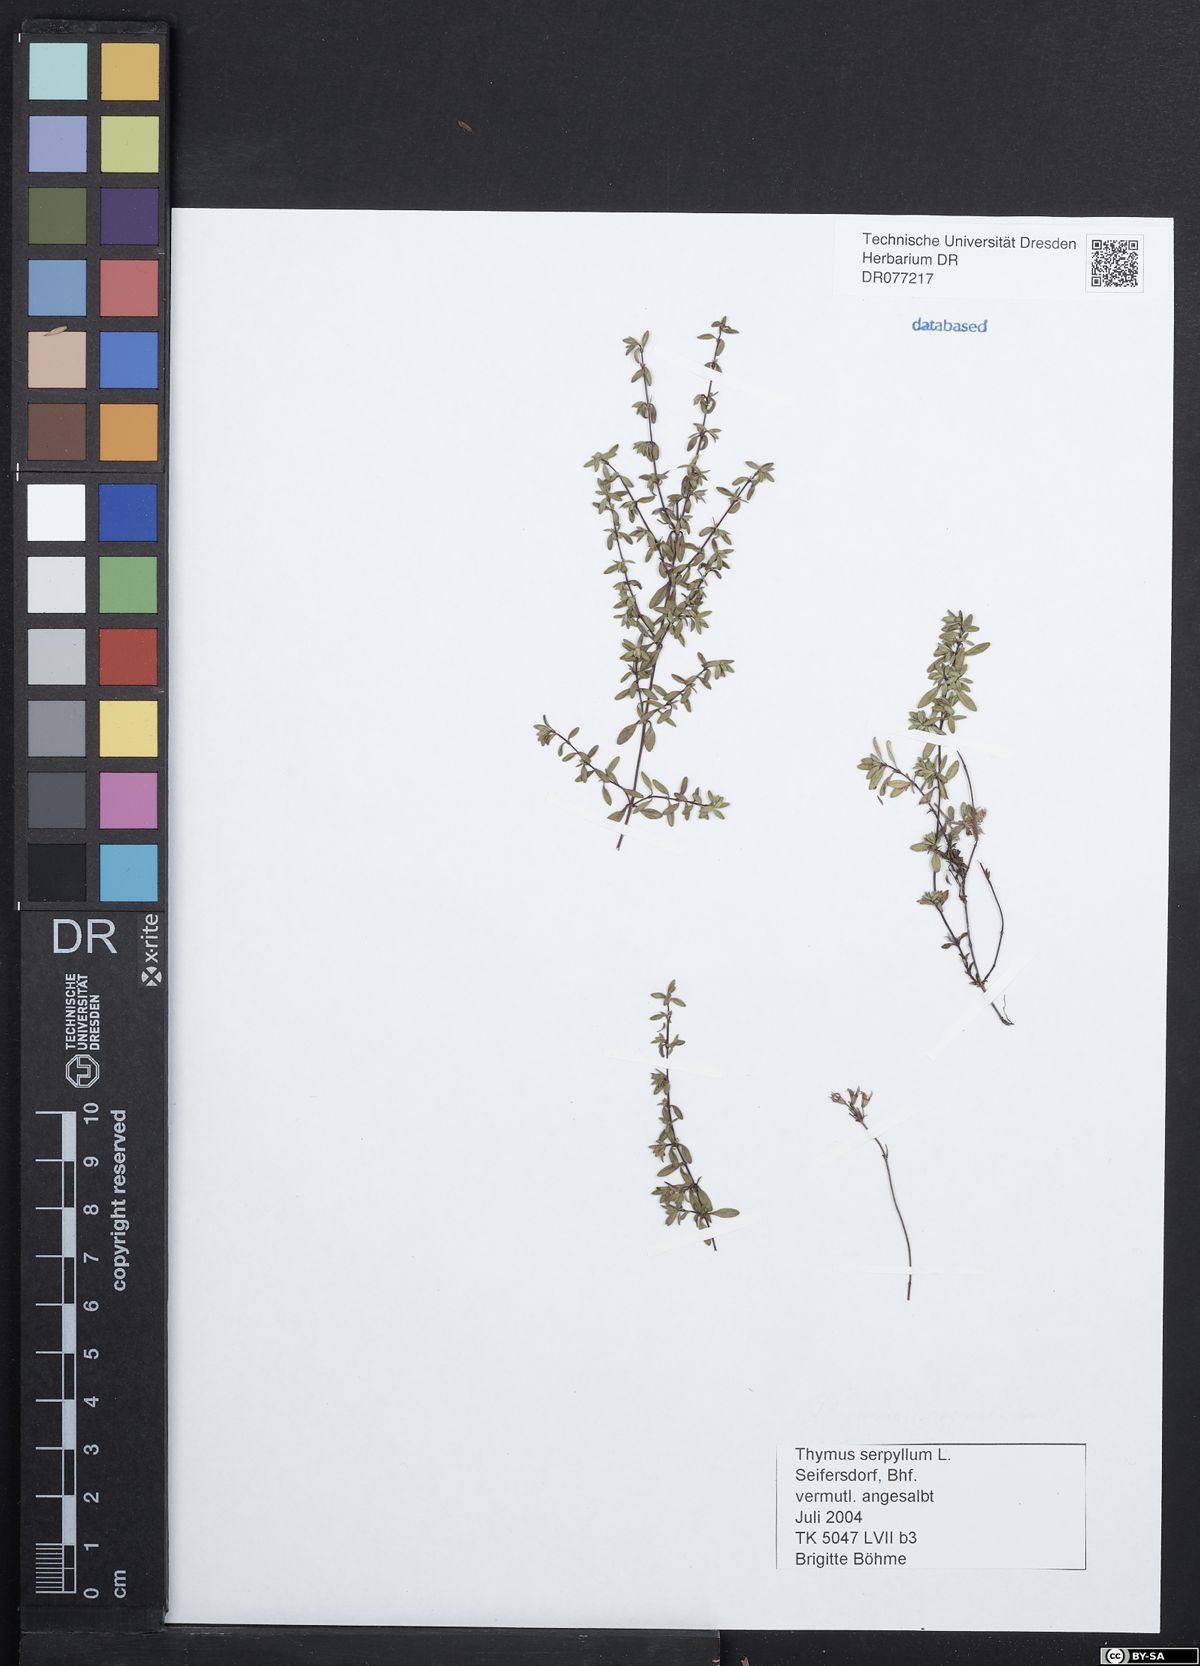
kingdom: Plantae
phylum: Tracheophyta
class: Magnoliopsida
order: Lamiales
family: Lamiaceae
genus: Thymus
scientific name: Thymus serpyllum
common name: Breckland thyme
